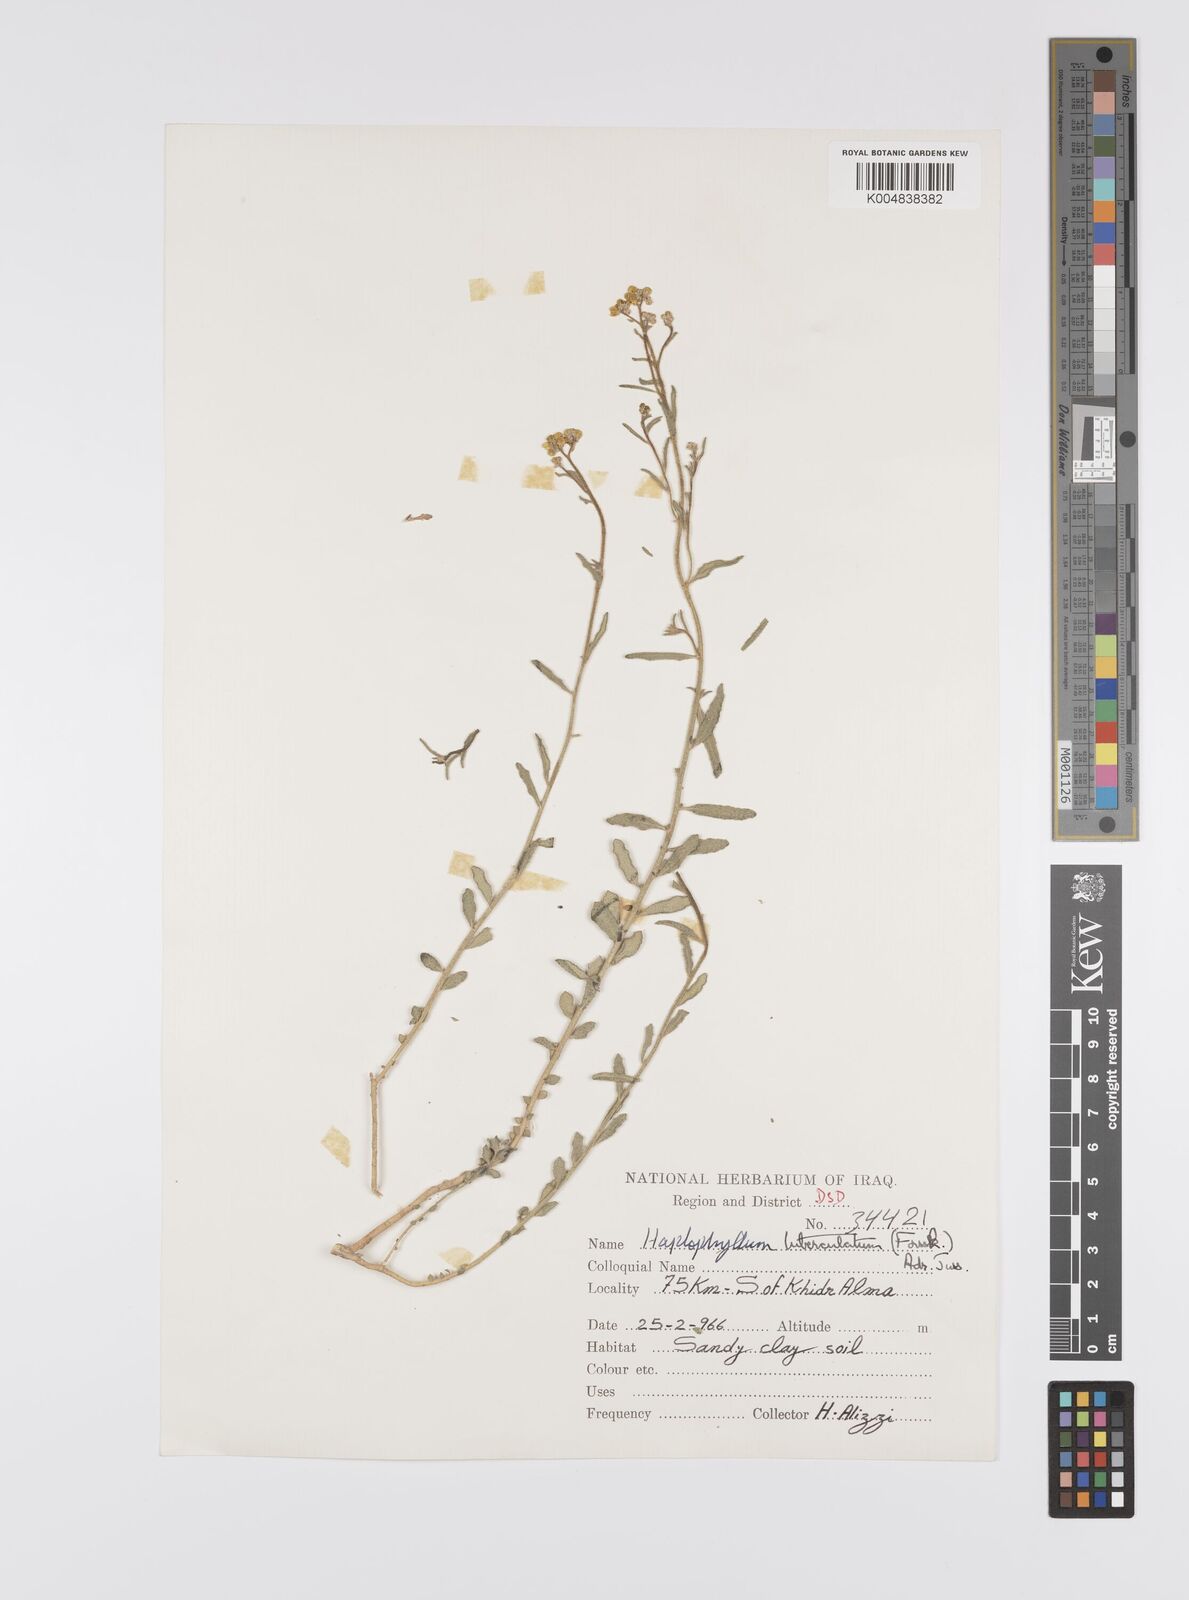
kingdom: Plantae
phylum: Tracheophyta
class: Magnoliopsida
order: Sapindales
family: Rutaceae
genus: Haplophyllum
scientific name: Haplophyllum tuberculatum
